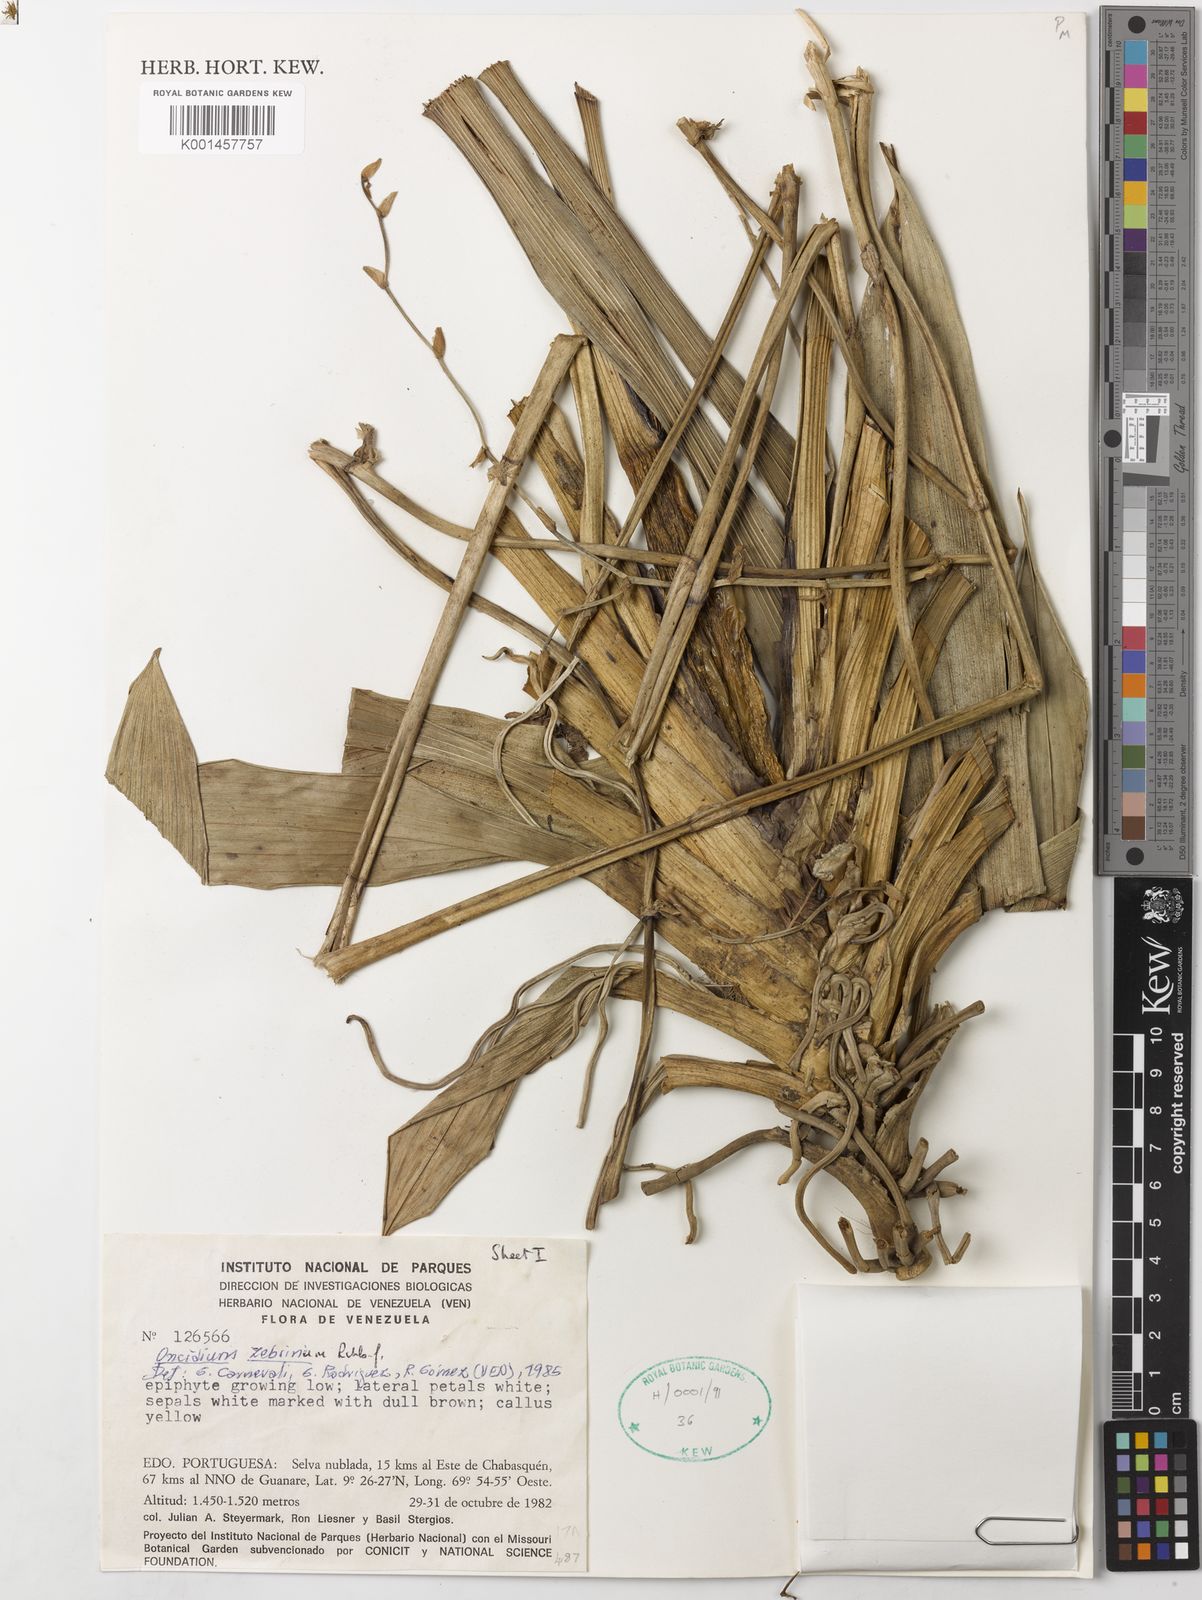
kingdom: Plantae
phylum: Tracheophyta
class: Liliopsida
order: Asparagales
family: Orchidaceae
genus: Cyrtochilum
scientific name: Cyrtochilum zebrinum
